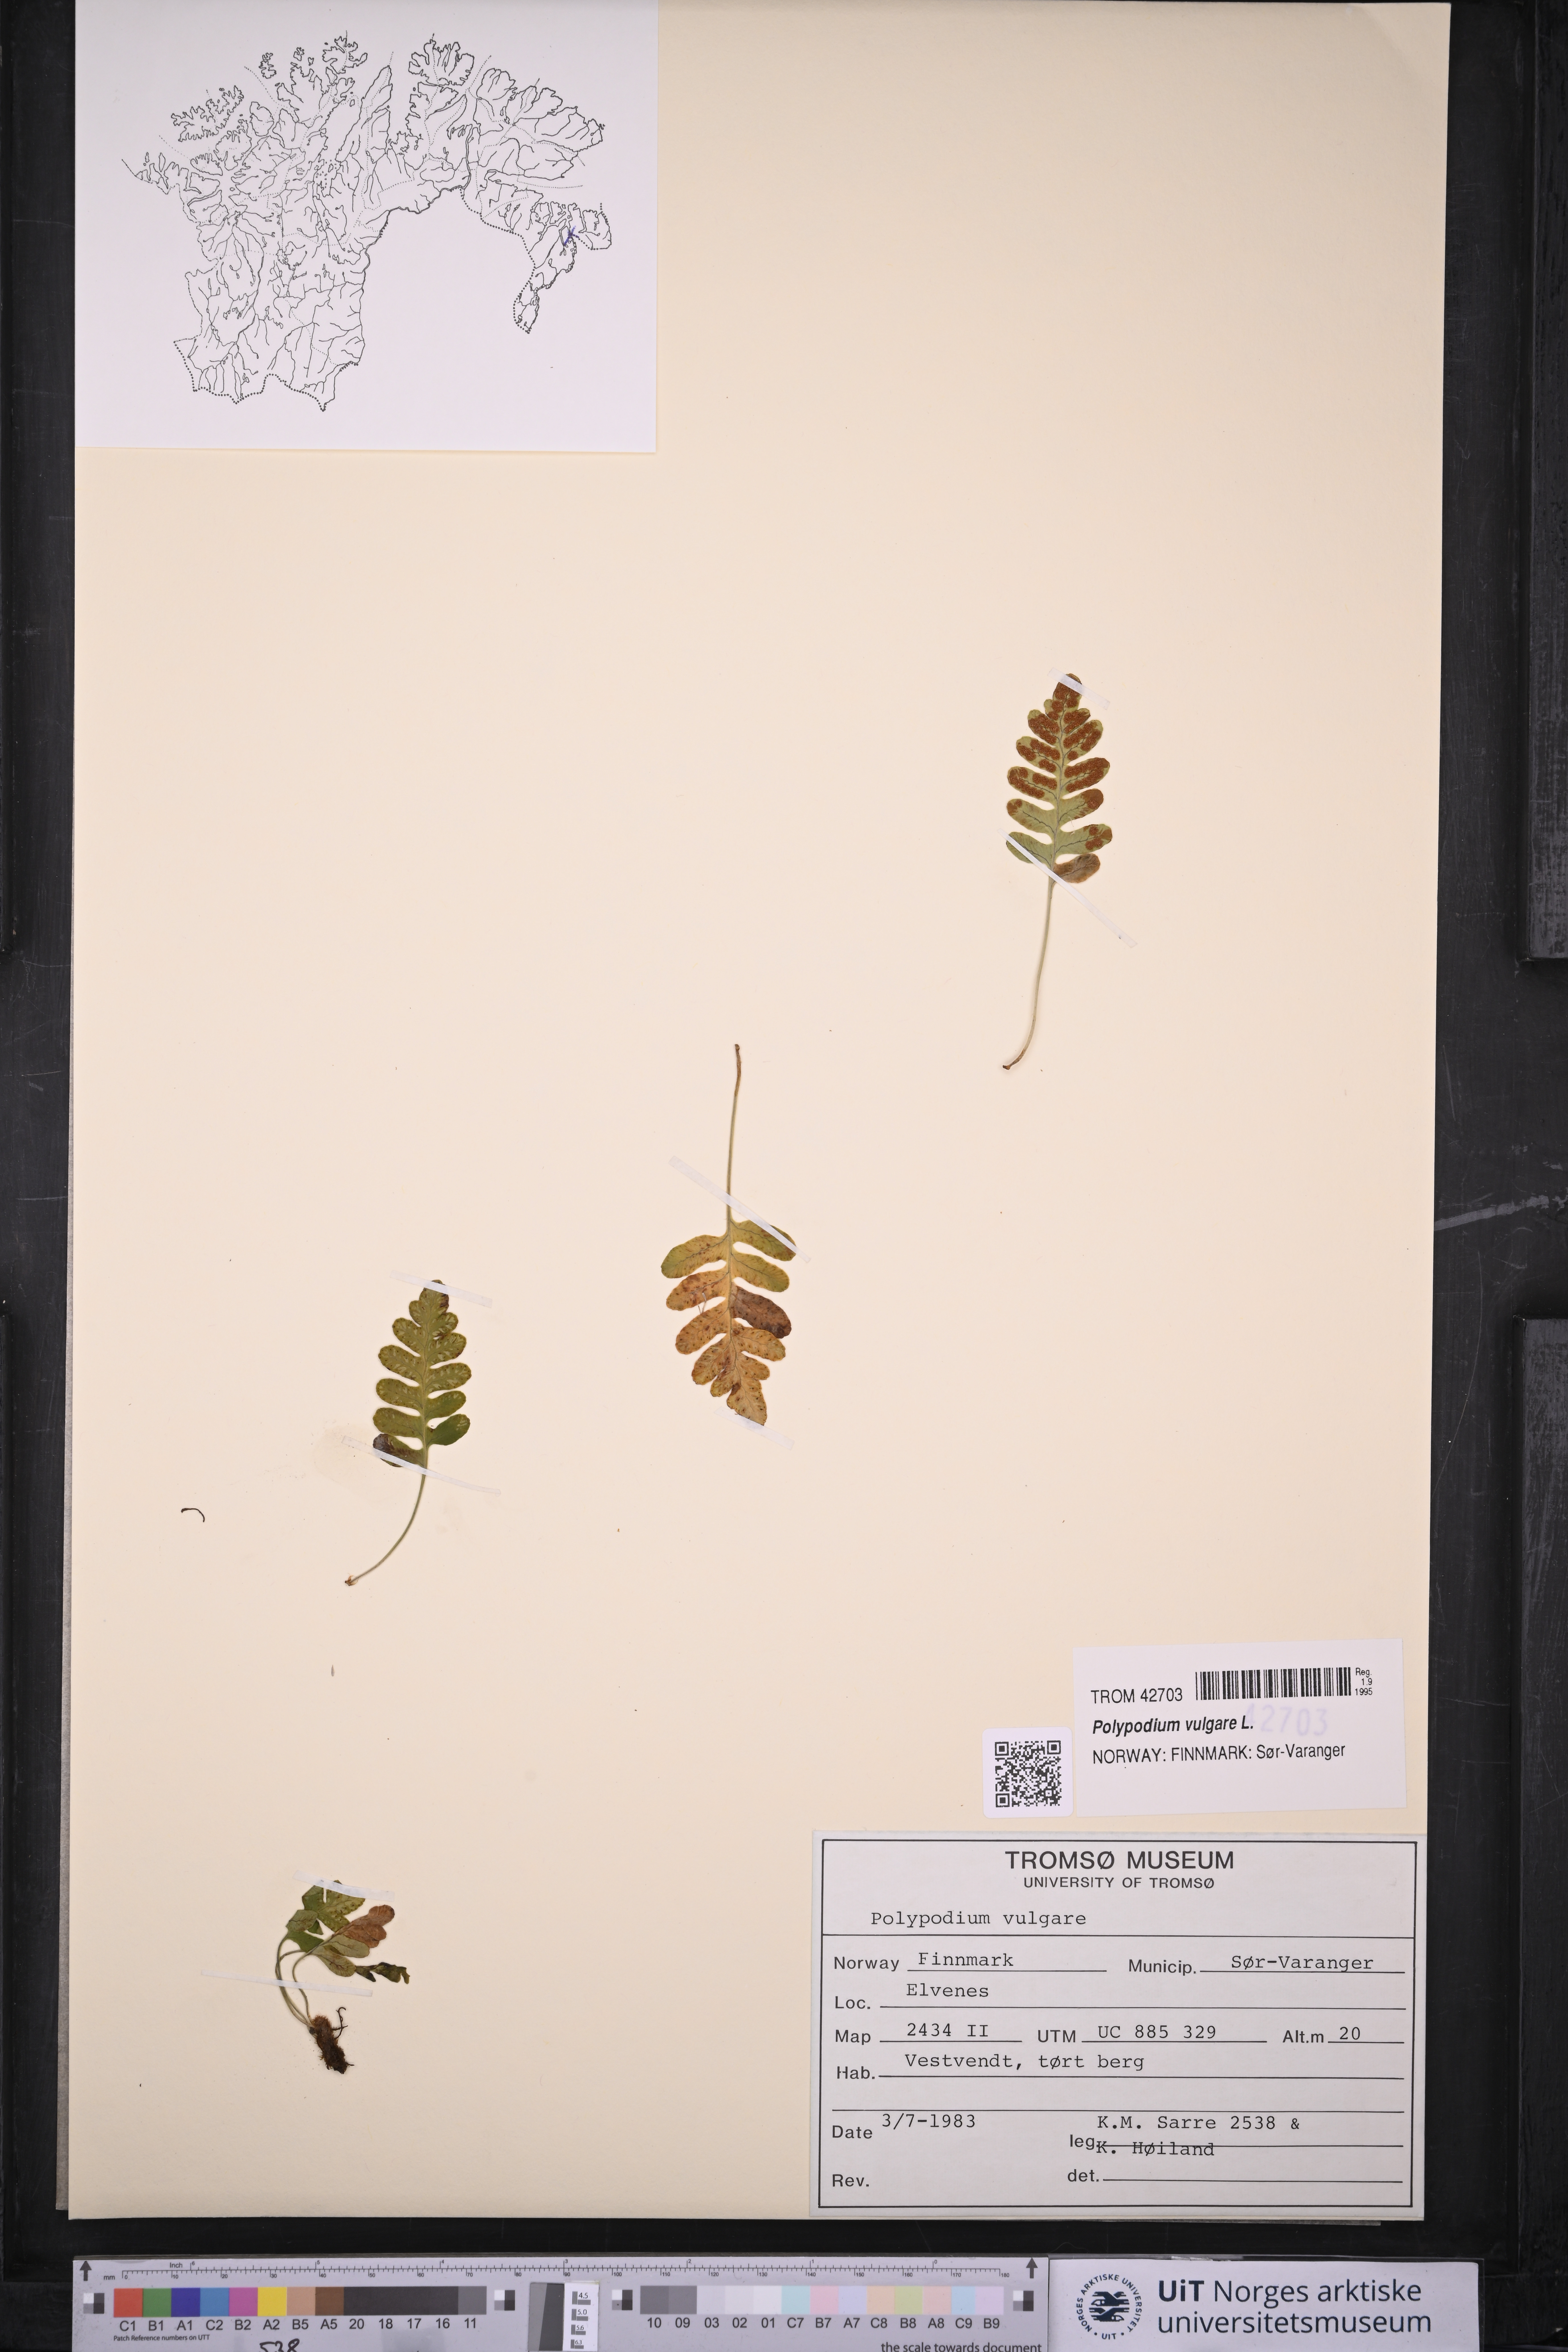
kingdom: Plantae
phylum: Tracheophyta
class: Polypodiopsida
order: Polypodiales
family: Polypodiaceae
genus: Polypodium
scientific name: Polypodium vulgare
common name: Common polypody
